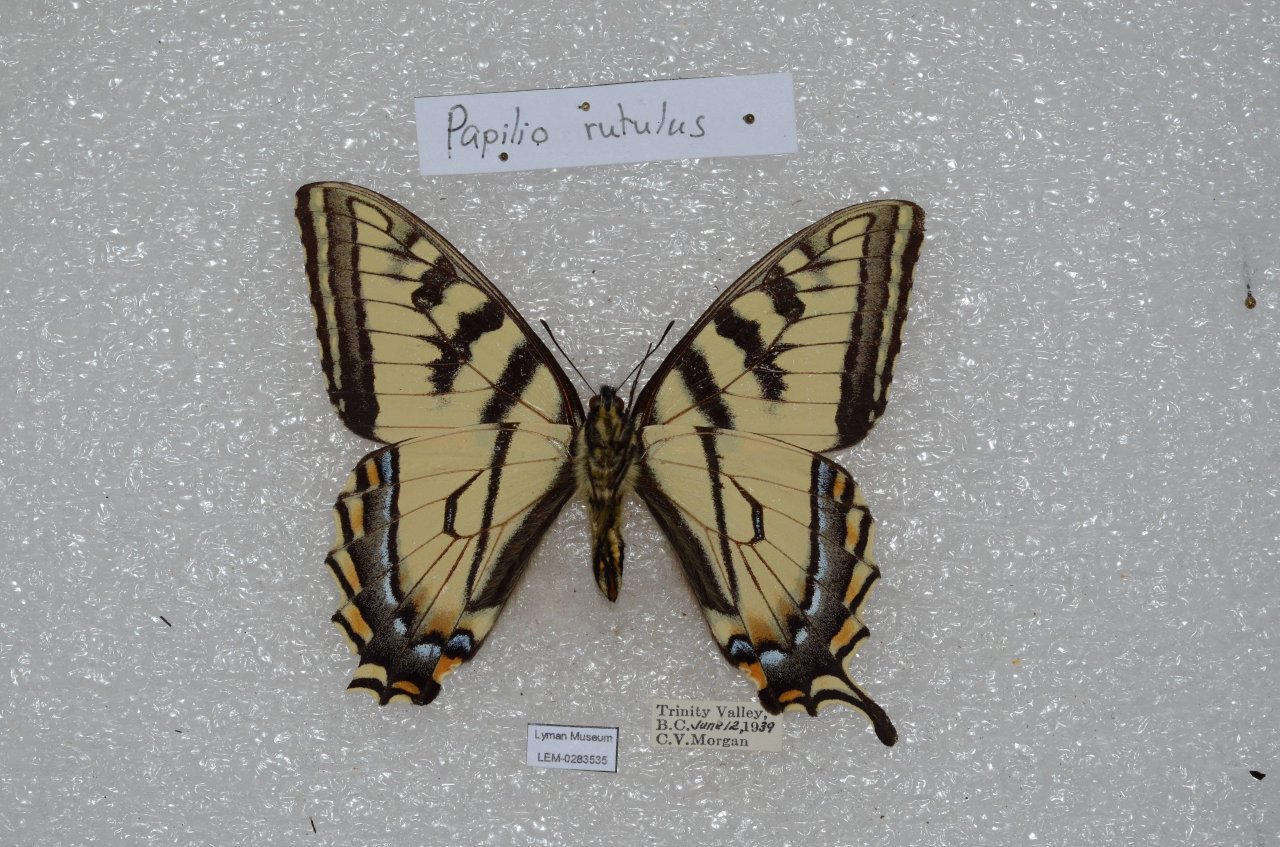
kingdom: Animalia
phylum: Arthropoda
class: Insecta
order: Lepidoptera
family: Papilionidae
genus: Pterourus
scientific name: Pterourus rutulus
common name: Western Tiger Swallowtail
